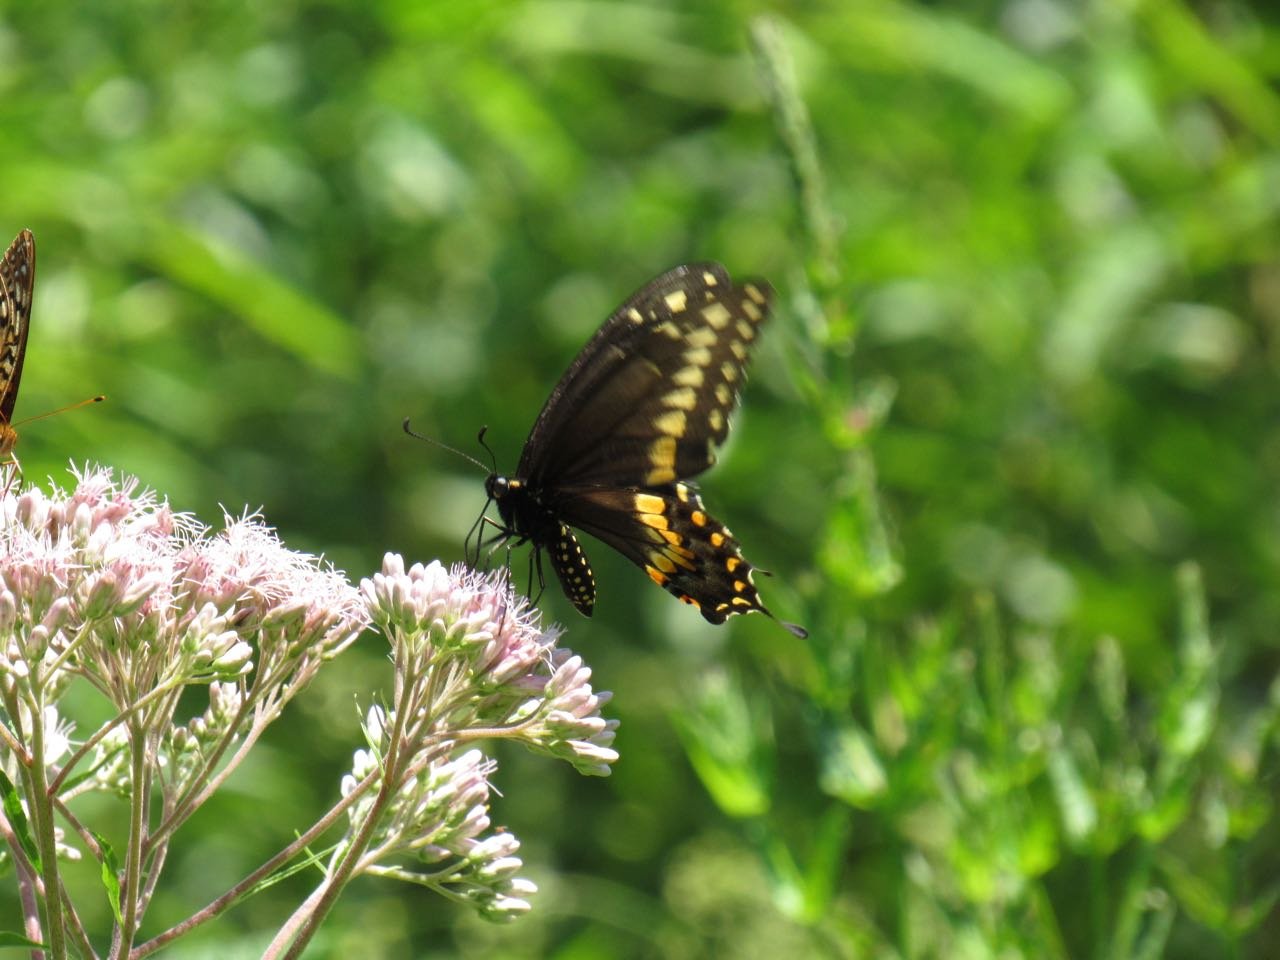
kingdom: Animalia
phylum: Arthropoda
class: Insecta
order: Lepidoptera
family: Papilionidae
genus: Papilio
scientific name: Papilio polyxenes
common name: Black Swallowtail
